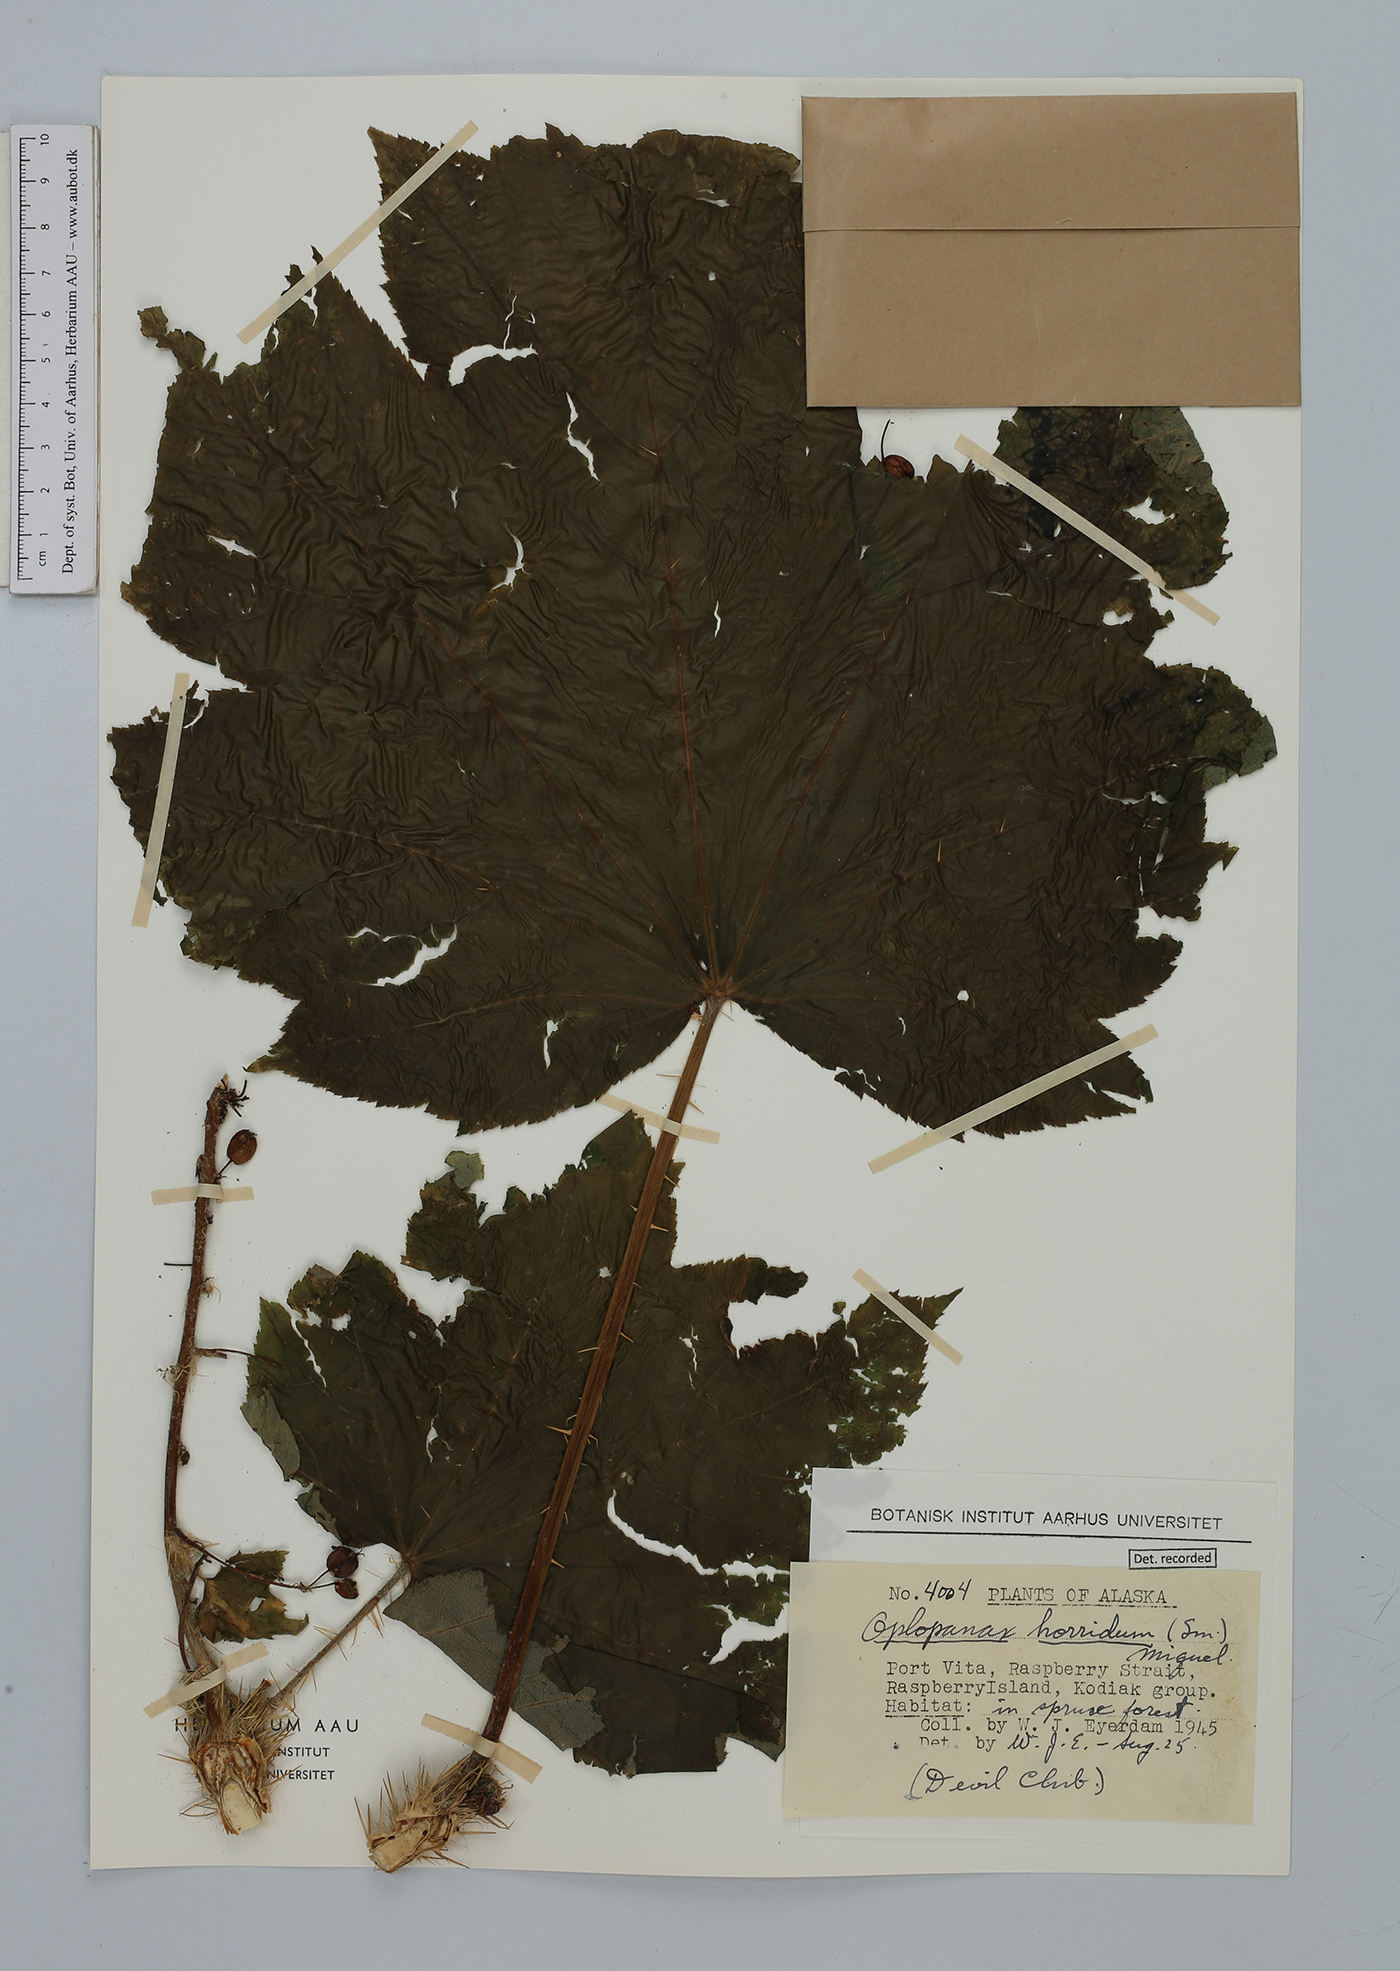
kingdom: Plantae
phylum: Tracheophyta
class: Magnoliopsida
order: Apiales
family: Araliaceae
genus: Oplopanax
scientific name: Oplopanax horridus
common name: Devil's walking-stick
